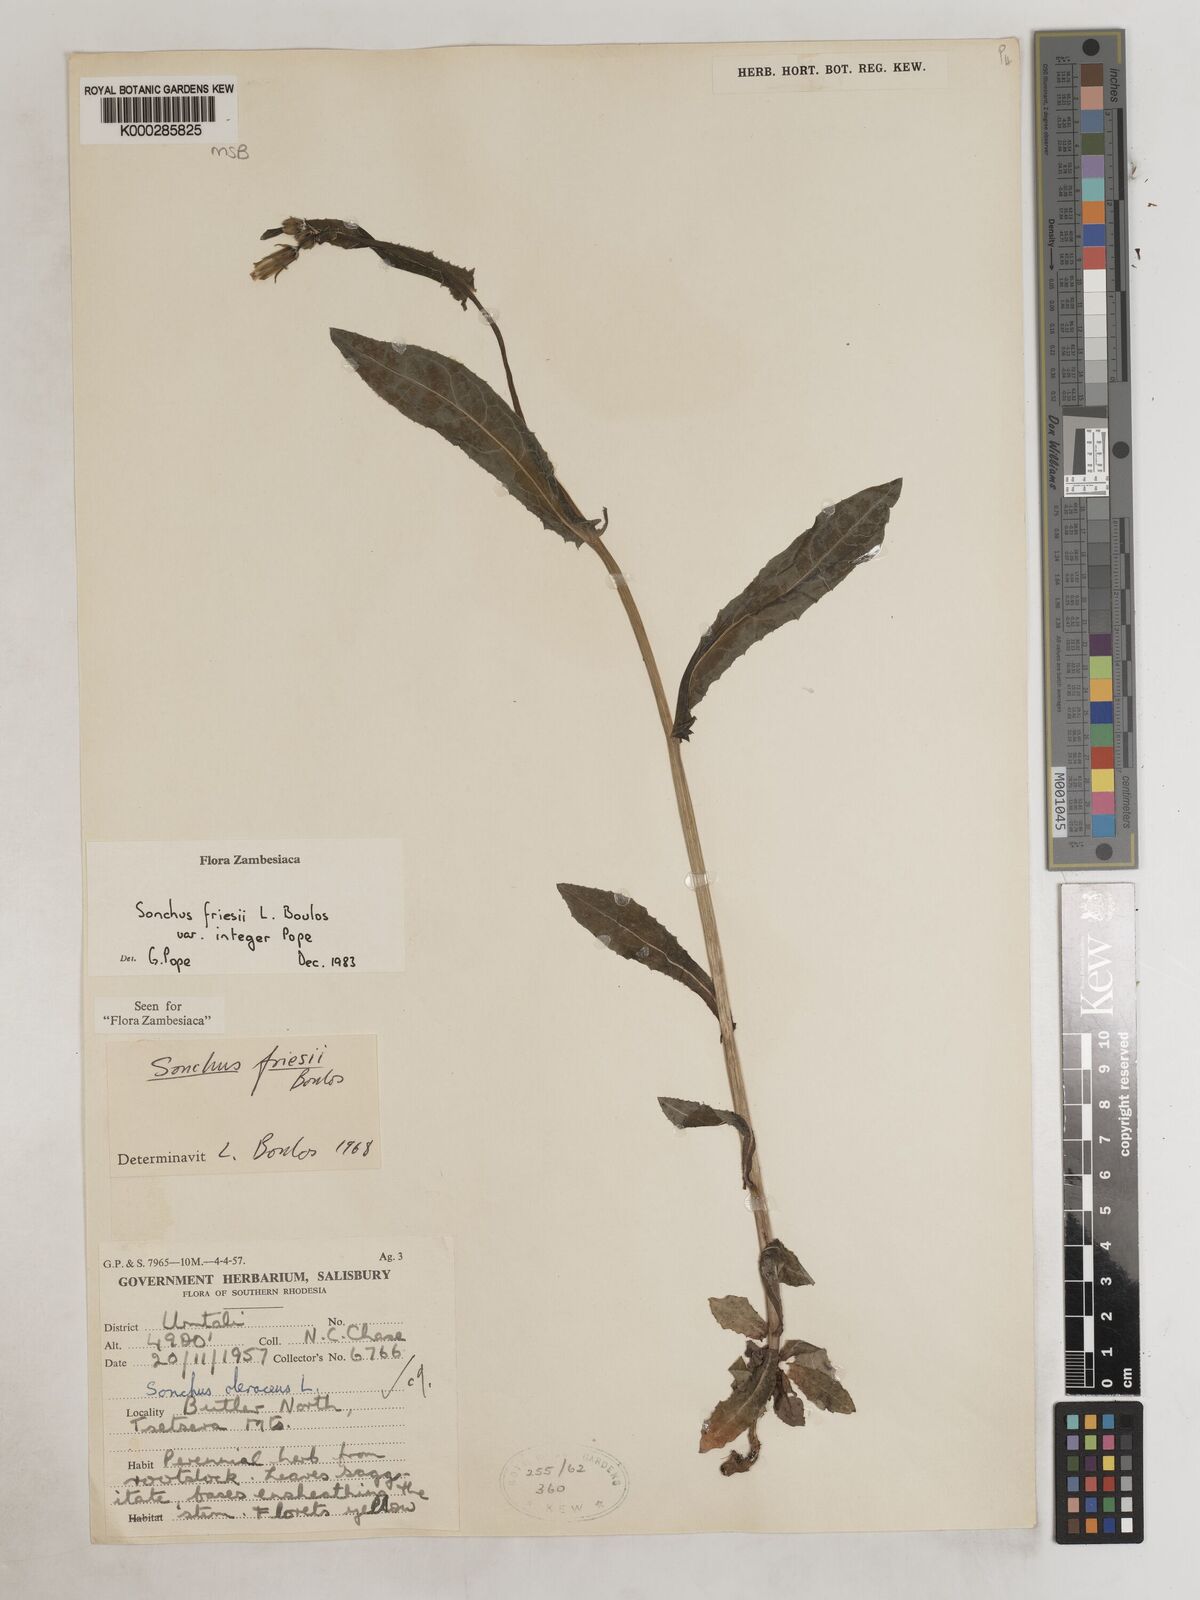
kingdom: Plantae
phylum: Tracheophyta
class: Magnoliopsida
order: Asterales
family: Asteraceae
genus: Sonchus
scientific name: Sonchus friesii
